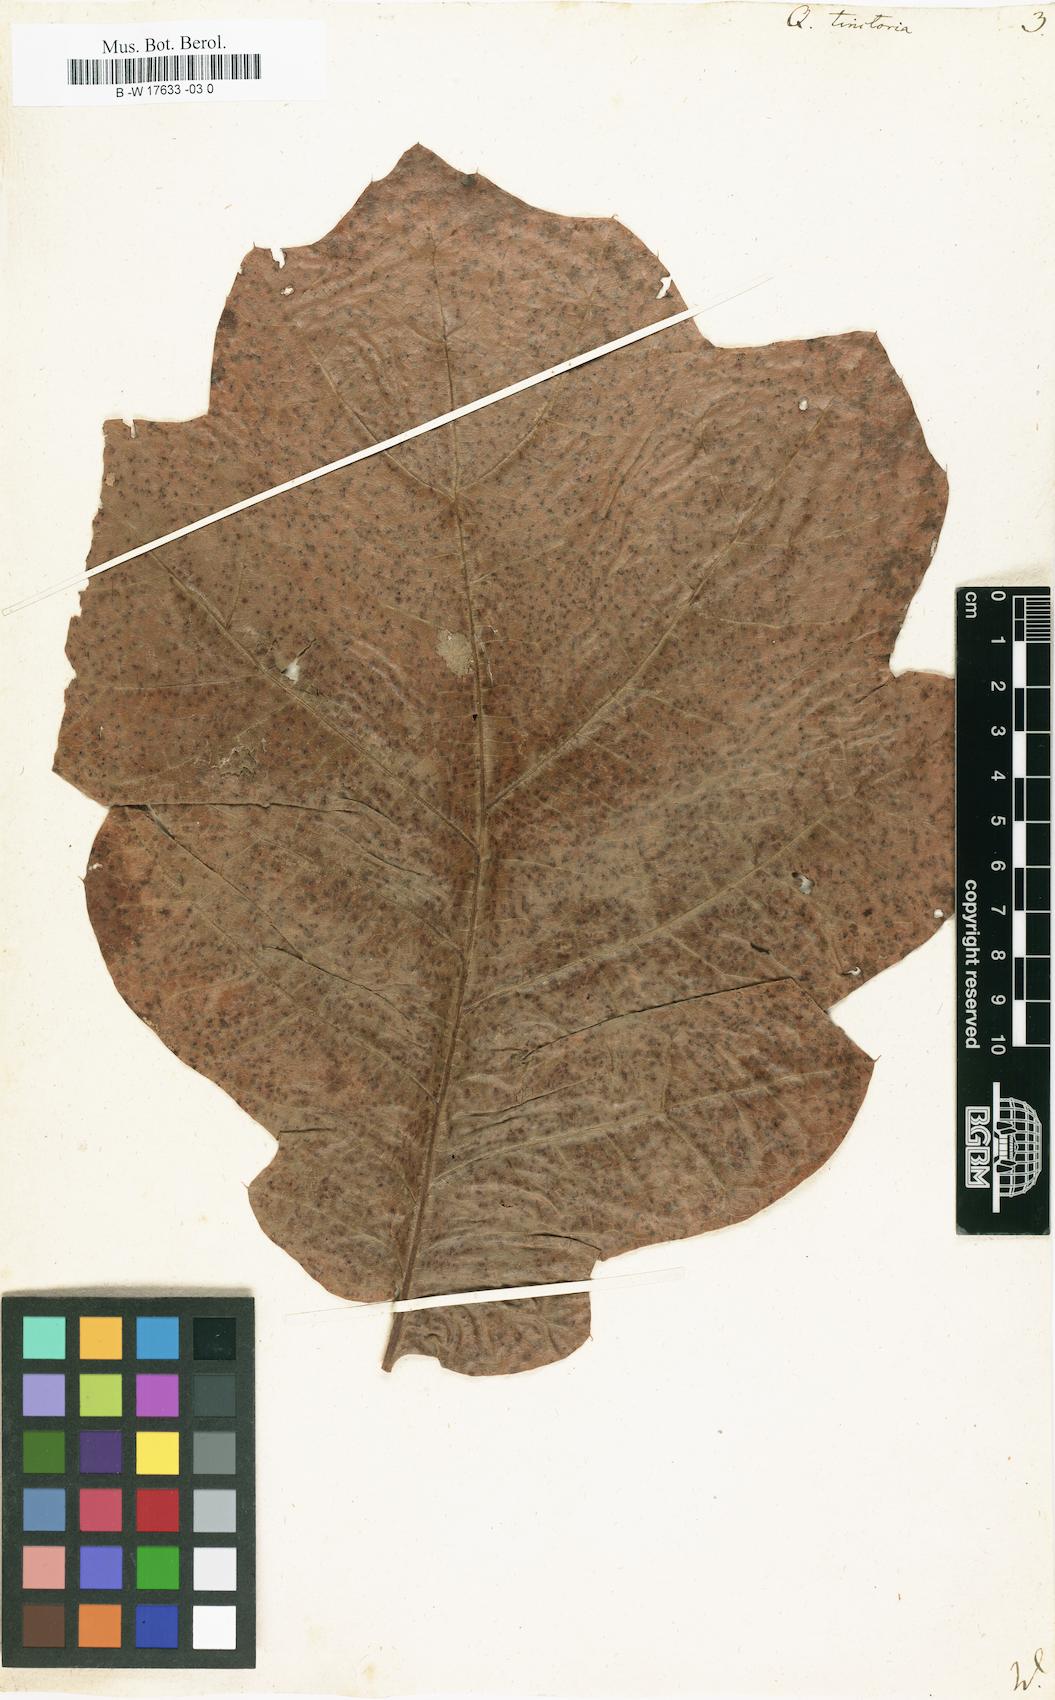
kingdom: Plantae
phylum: Tracheophyta
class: Magnoliopsida
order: Fagales
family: Fagaceae
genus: Quercus
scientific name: Quercus velutina
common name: Black oak
